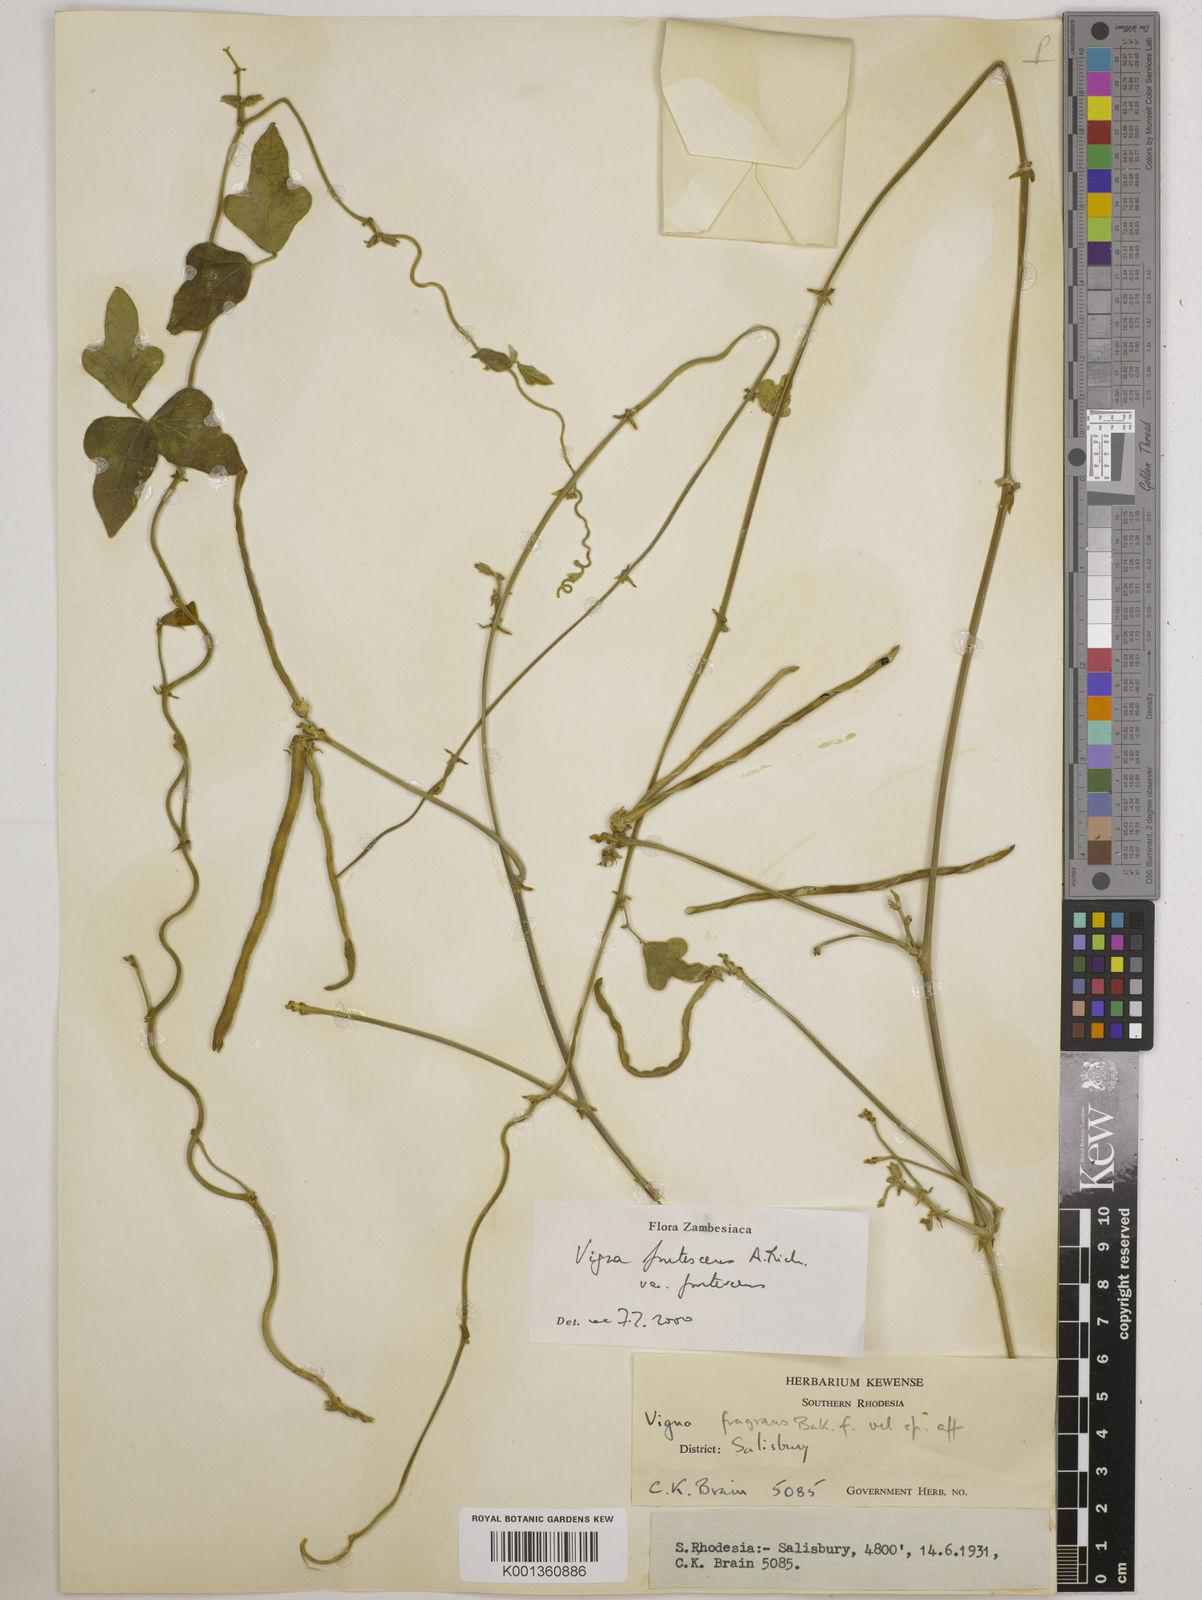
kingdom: Plantae
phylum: Tracheophyta
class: Magnoliopsida
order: Fabales
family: Fabaceae
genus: Vigna
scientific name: Vigna
